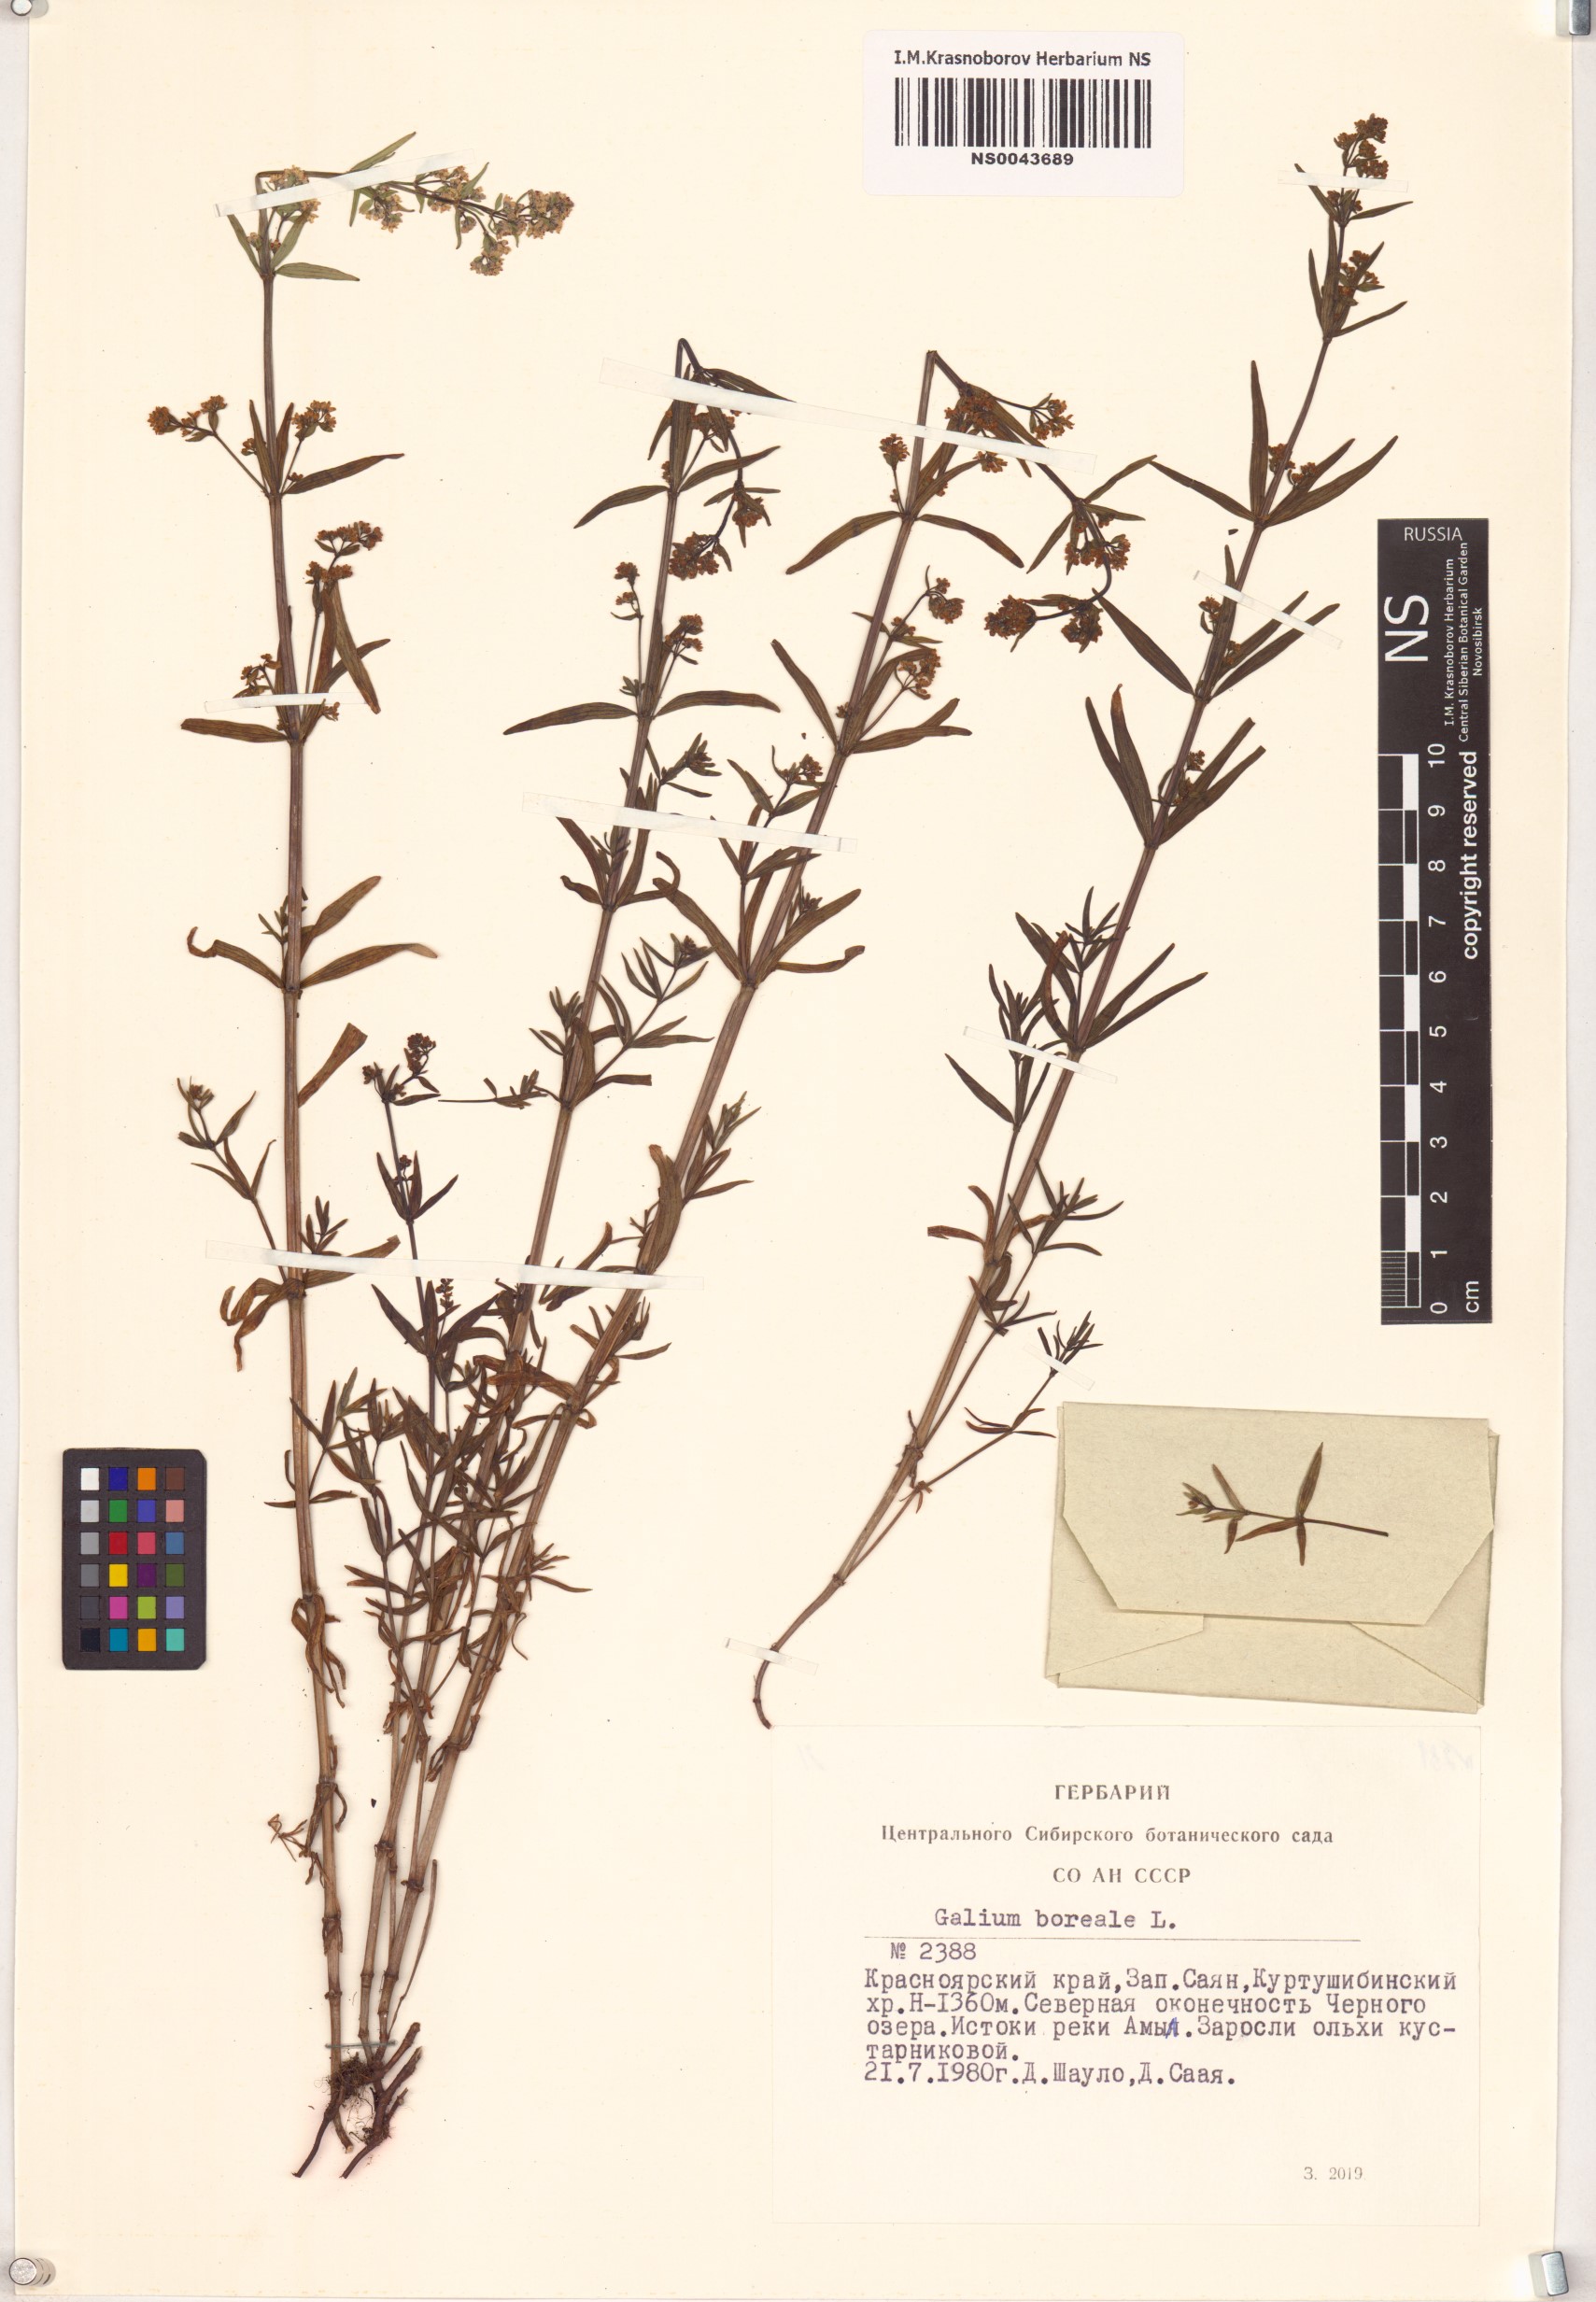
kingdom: Plantae
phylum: Tracheophyta
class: Magnoliopsida
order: Gentianales
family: Rubiaceae
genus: Galium
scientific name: Galium boreale
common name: Northern bedstraw
